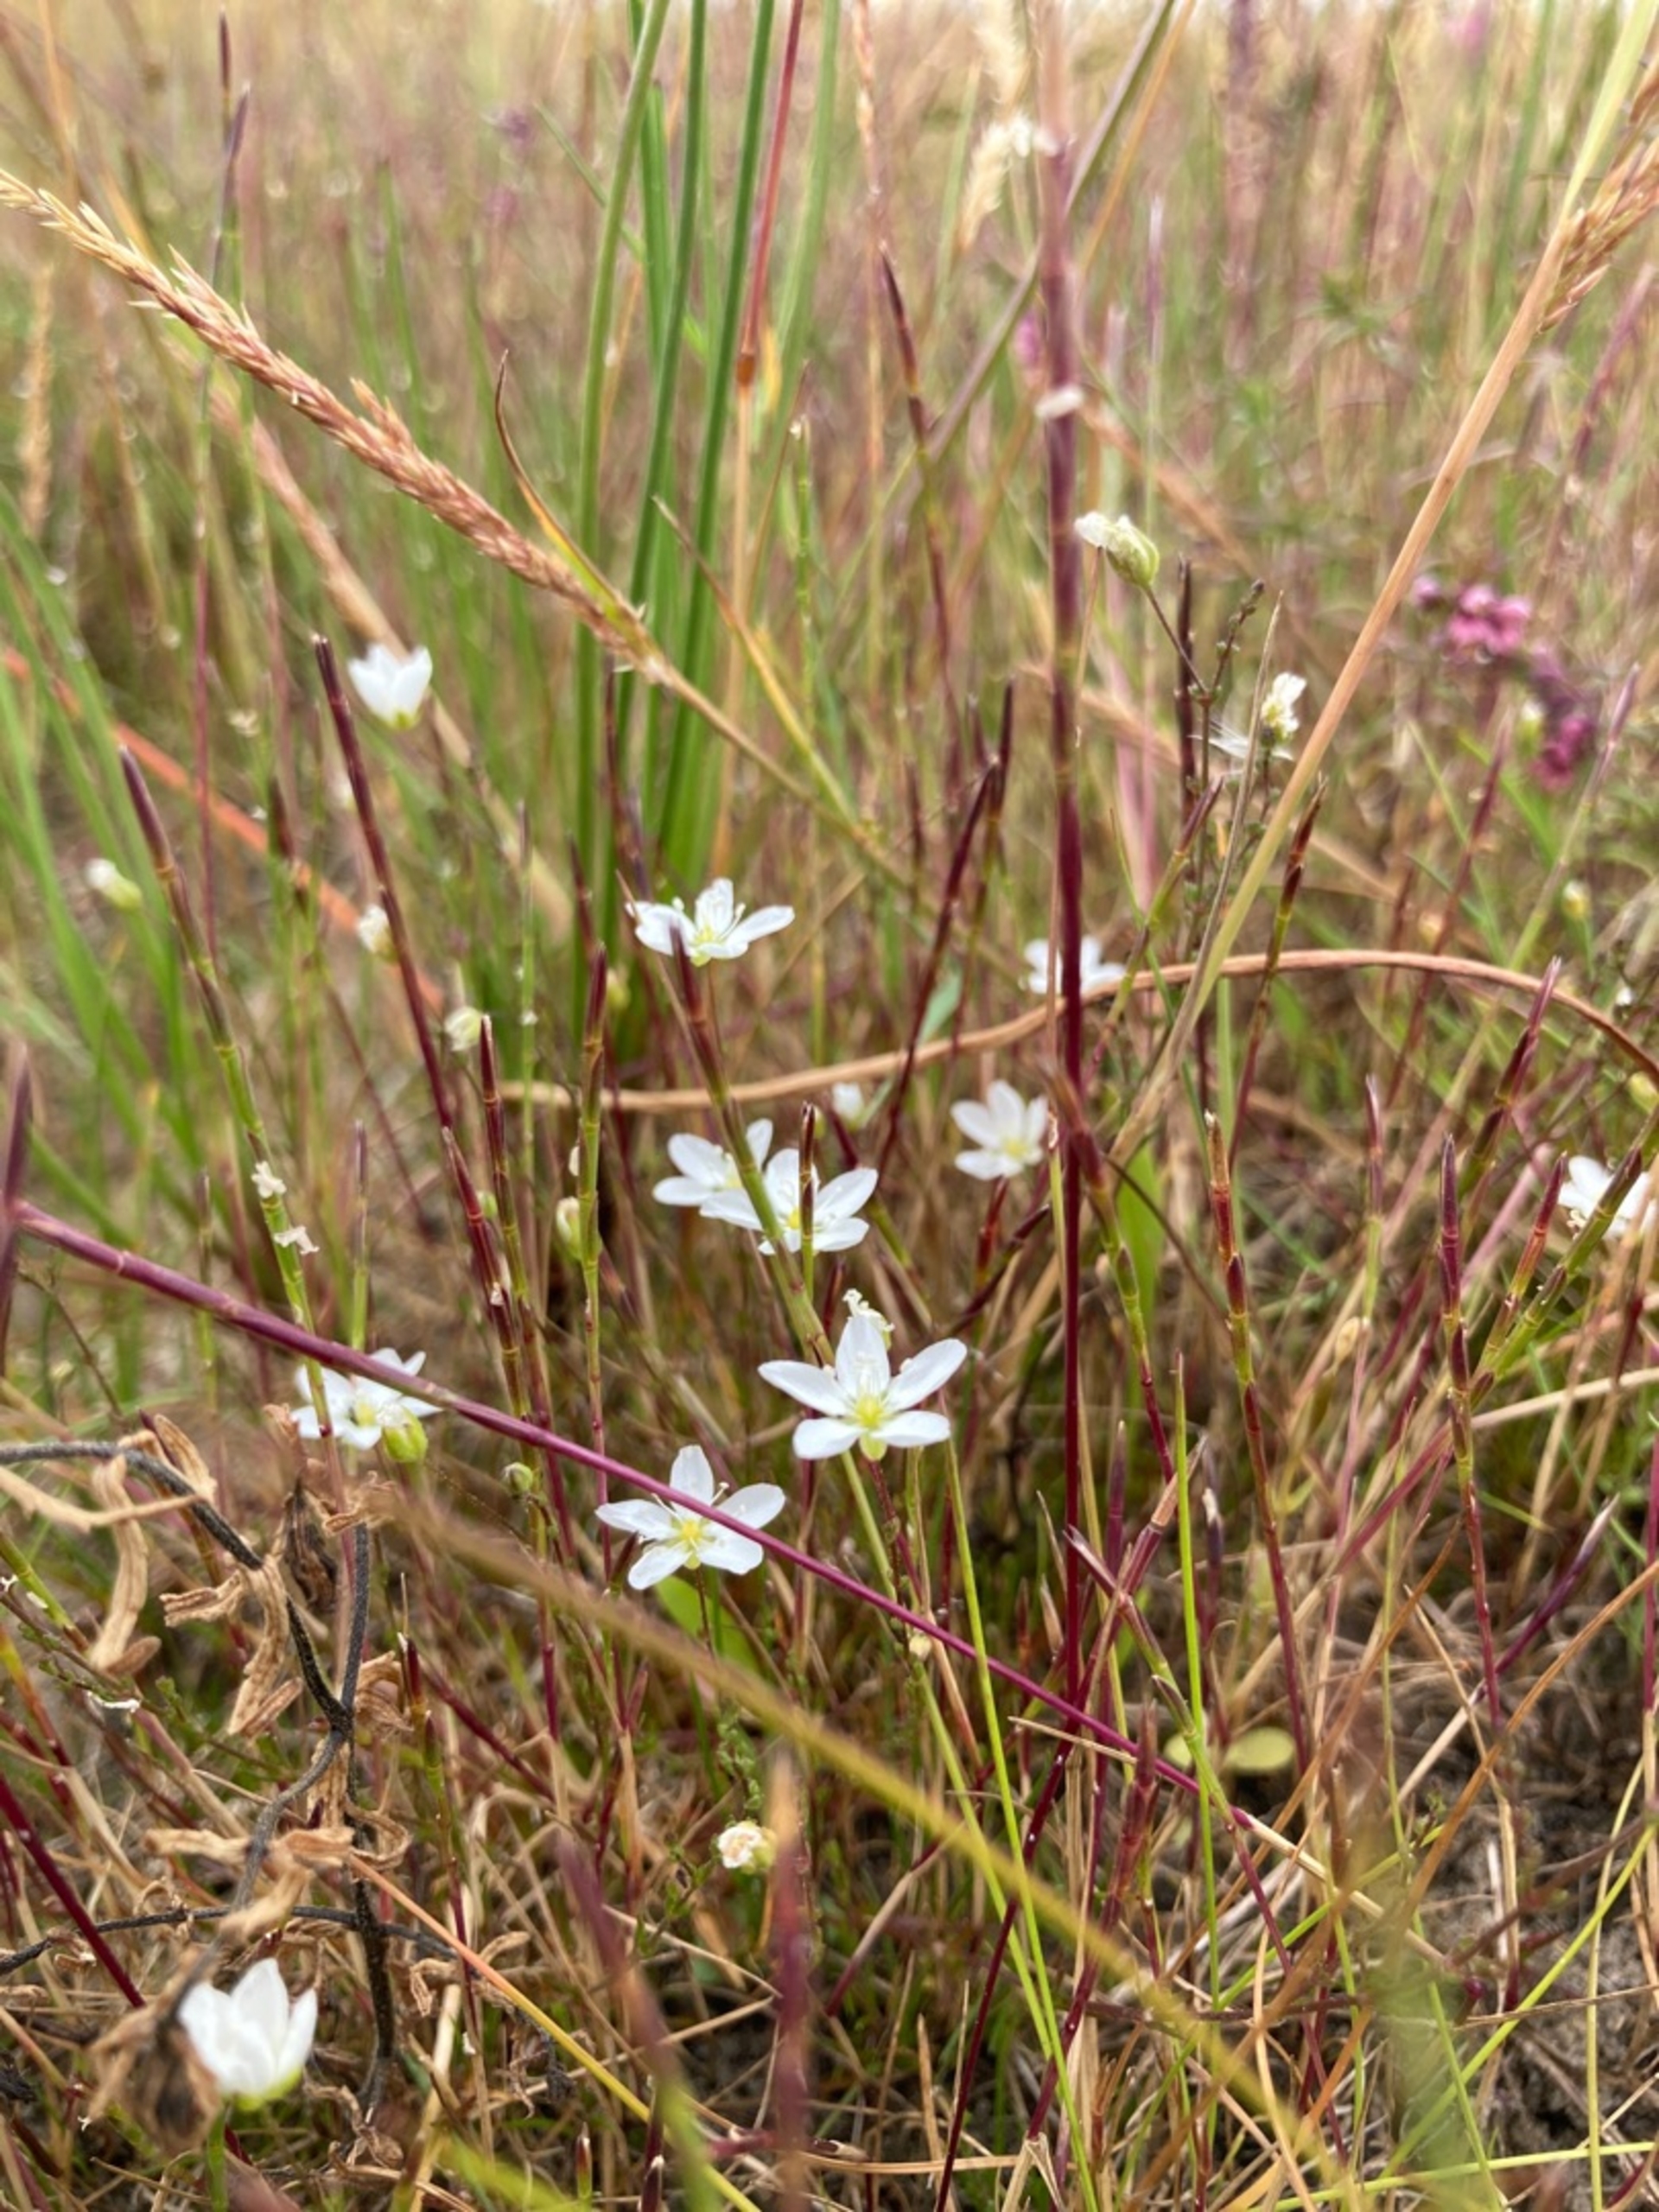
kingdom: Plantae
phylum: Tracheophyta
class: Magnoliopsida
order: Caryophyllales
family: Caryophyllaceae
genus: Sagina
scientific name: Sagina nodosa
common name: Knude-firling
